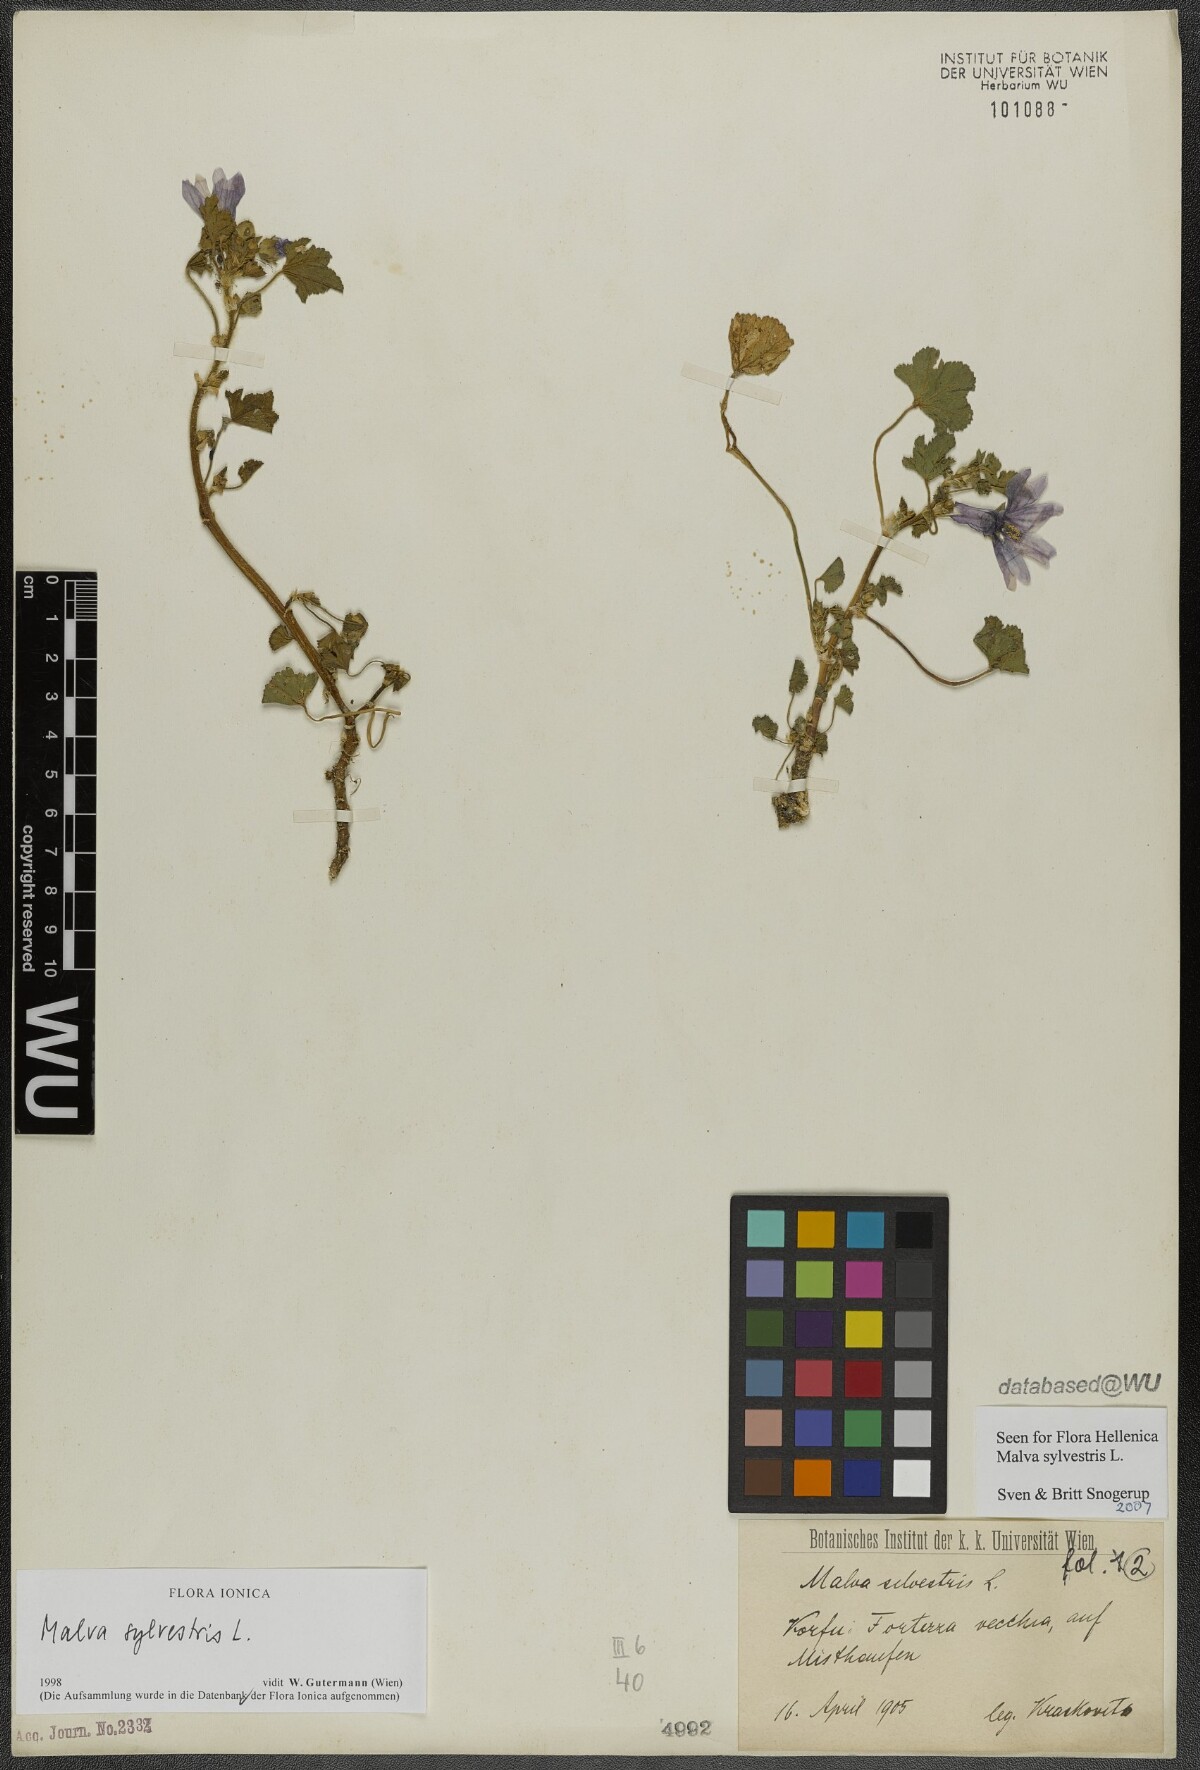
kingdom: Plantae
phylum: Tracheophyta
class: Magnoliopsida
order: Malvales
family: Malvaceae
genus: Malva
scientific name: Malva sylvestris
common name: Common mallow
